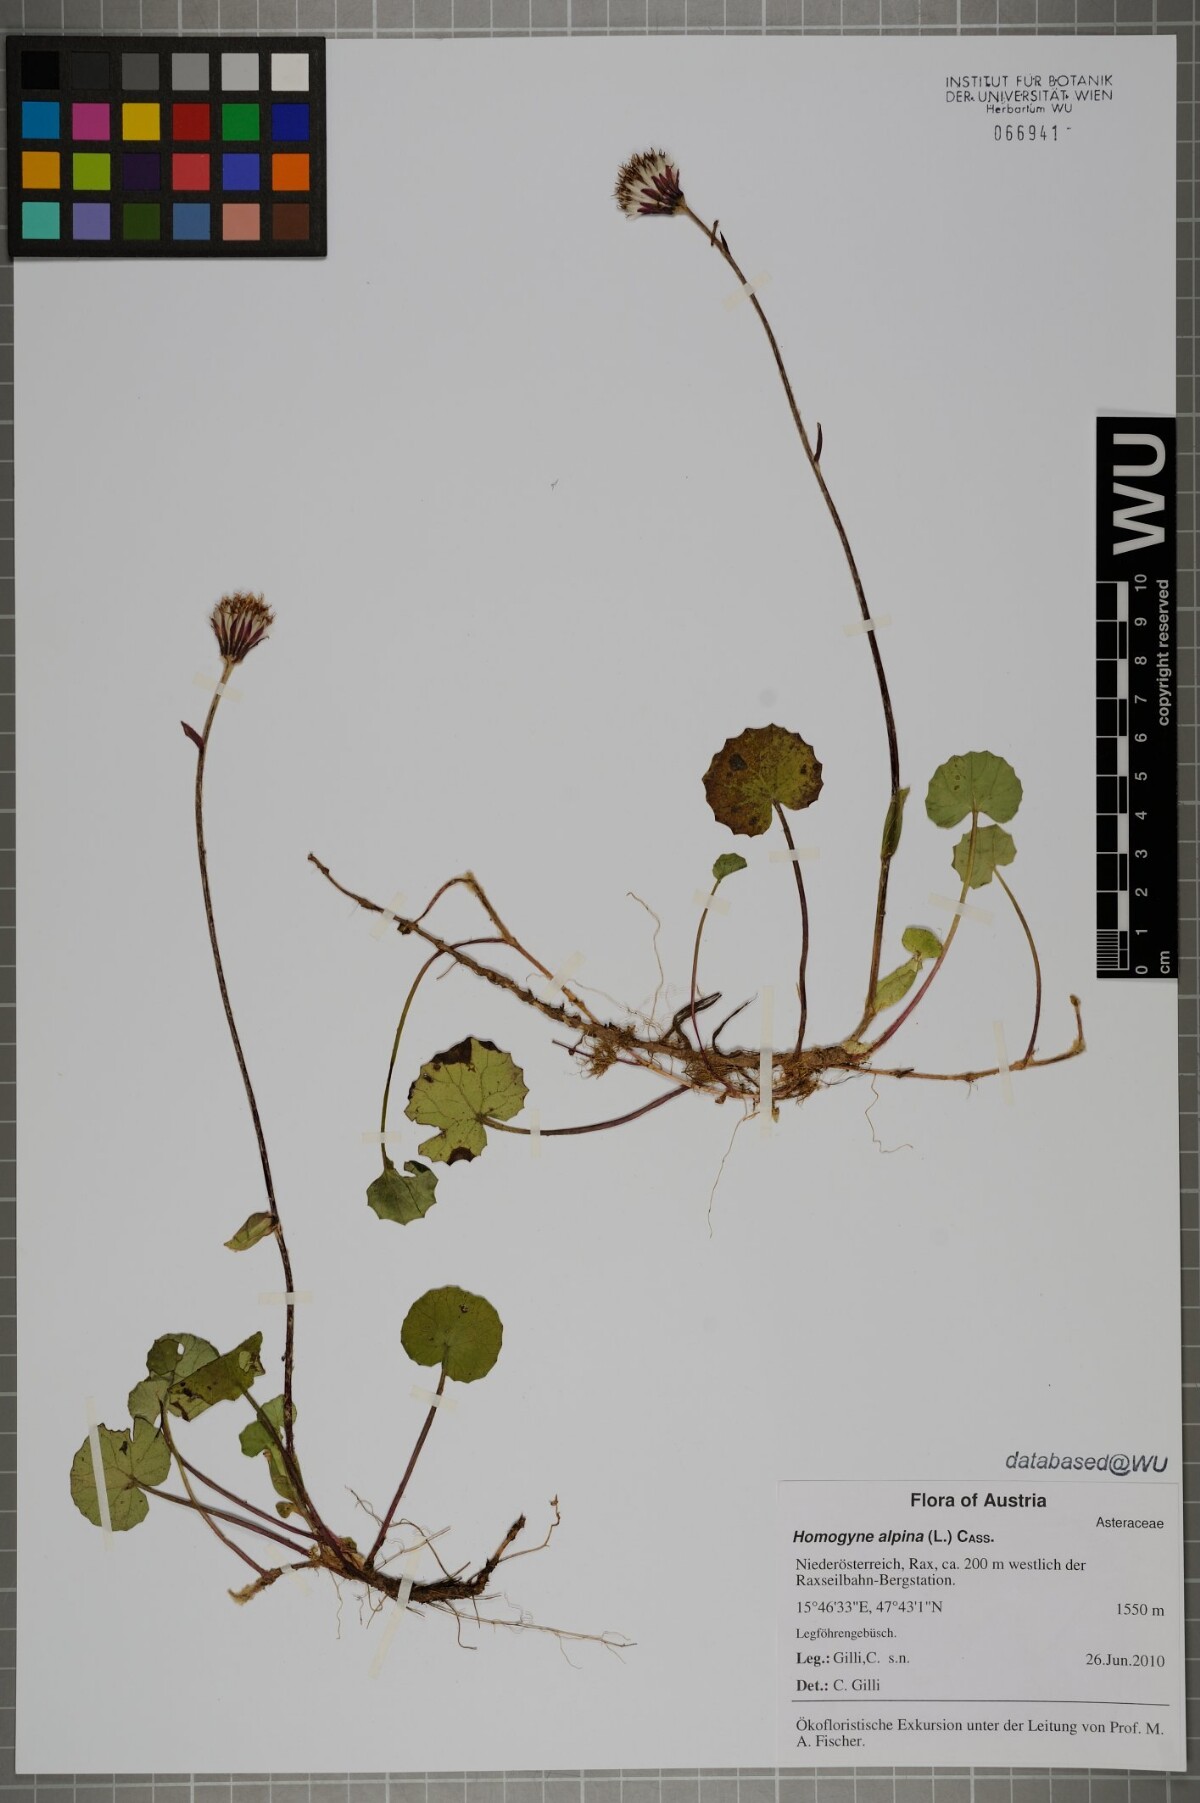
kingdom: Plantae
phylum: Tracheophyta
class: Magnoliopsida
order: Asterales
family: Asteraceae
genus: Homogyne
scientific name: Homogyne alpina
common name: Purple colt's-foot
